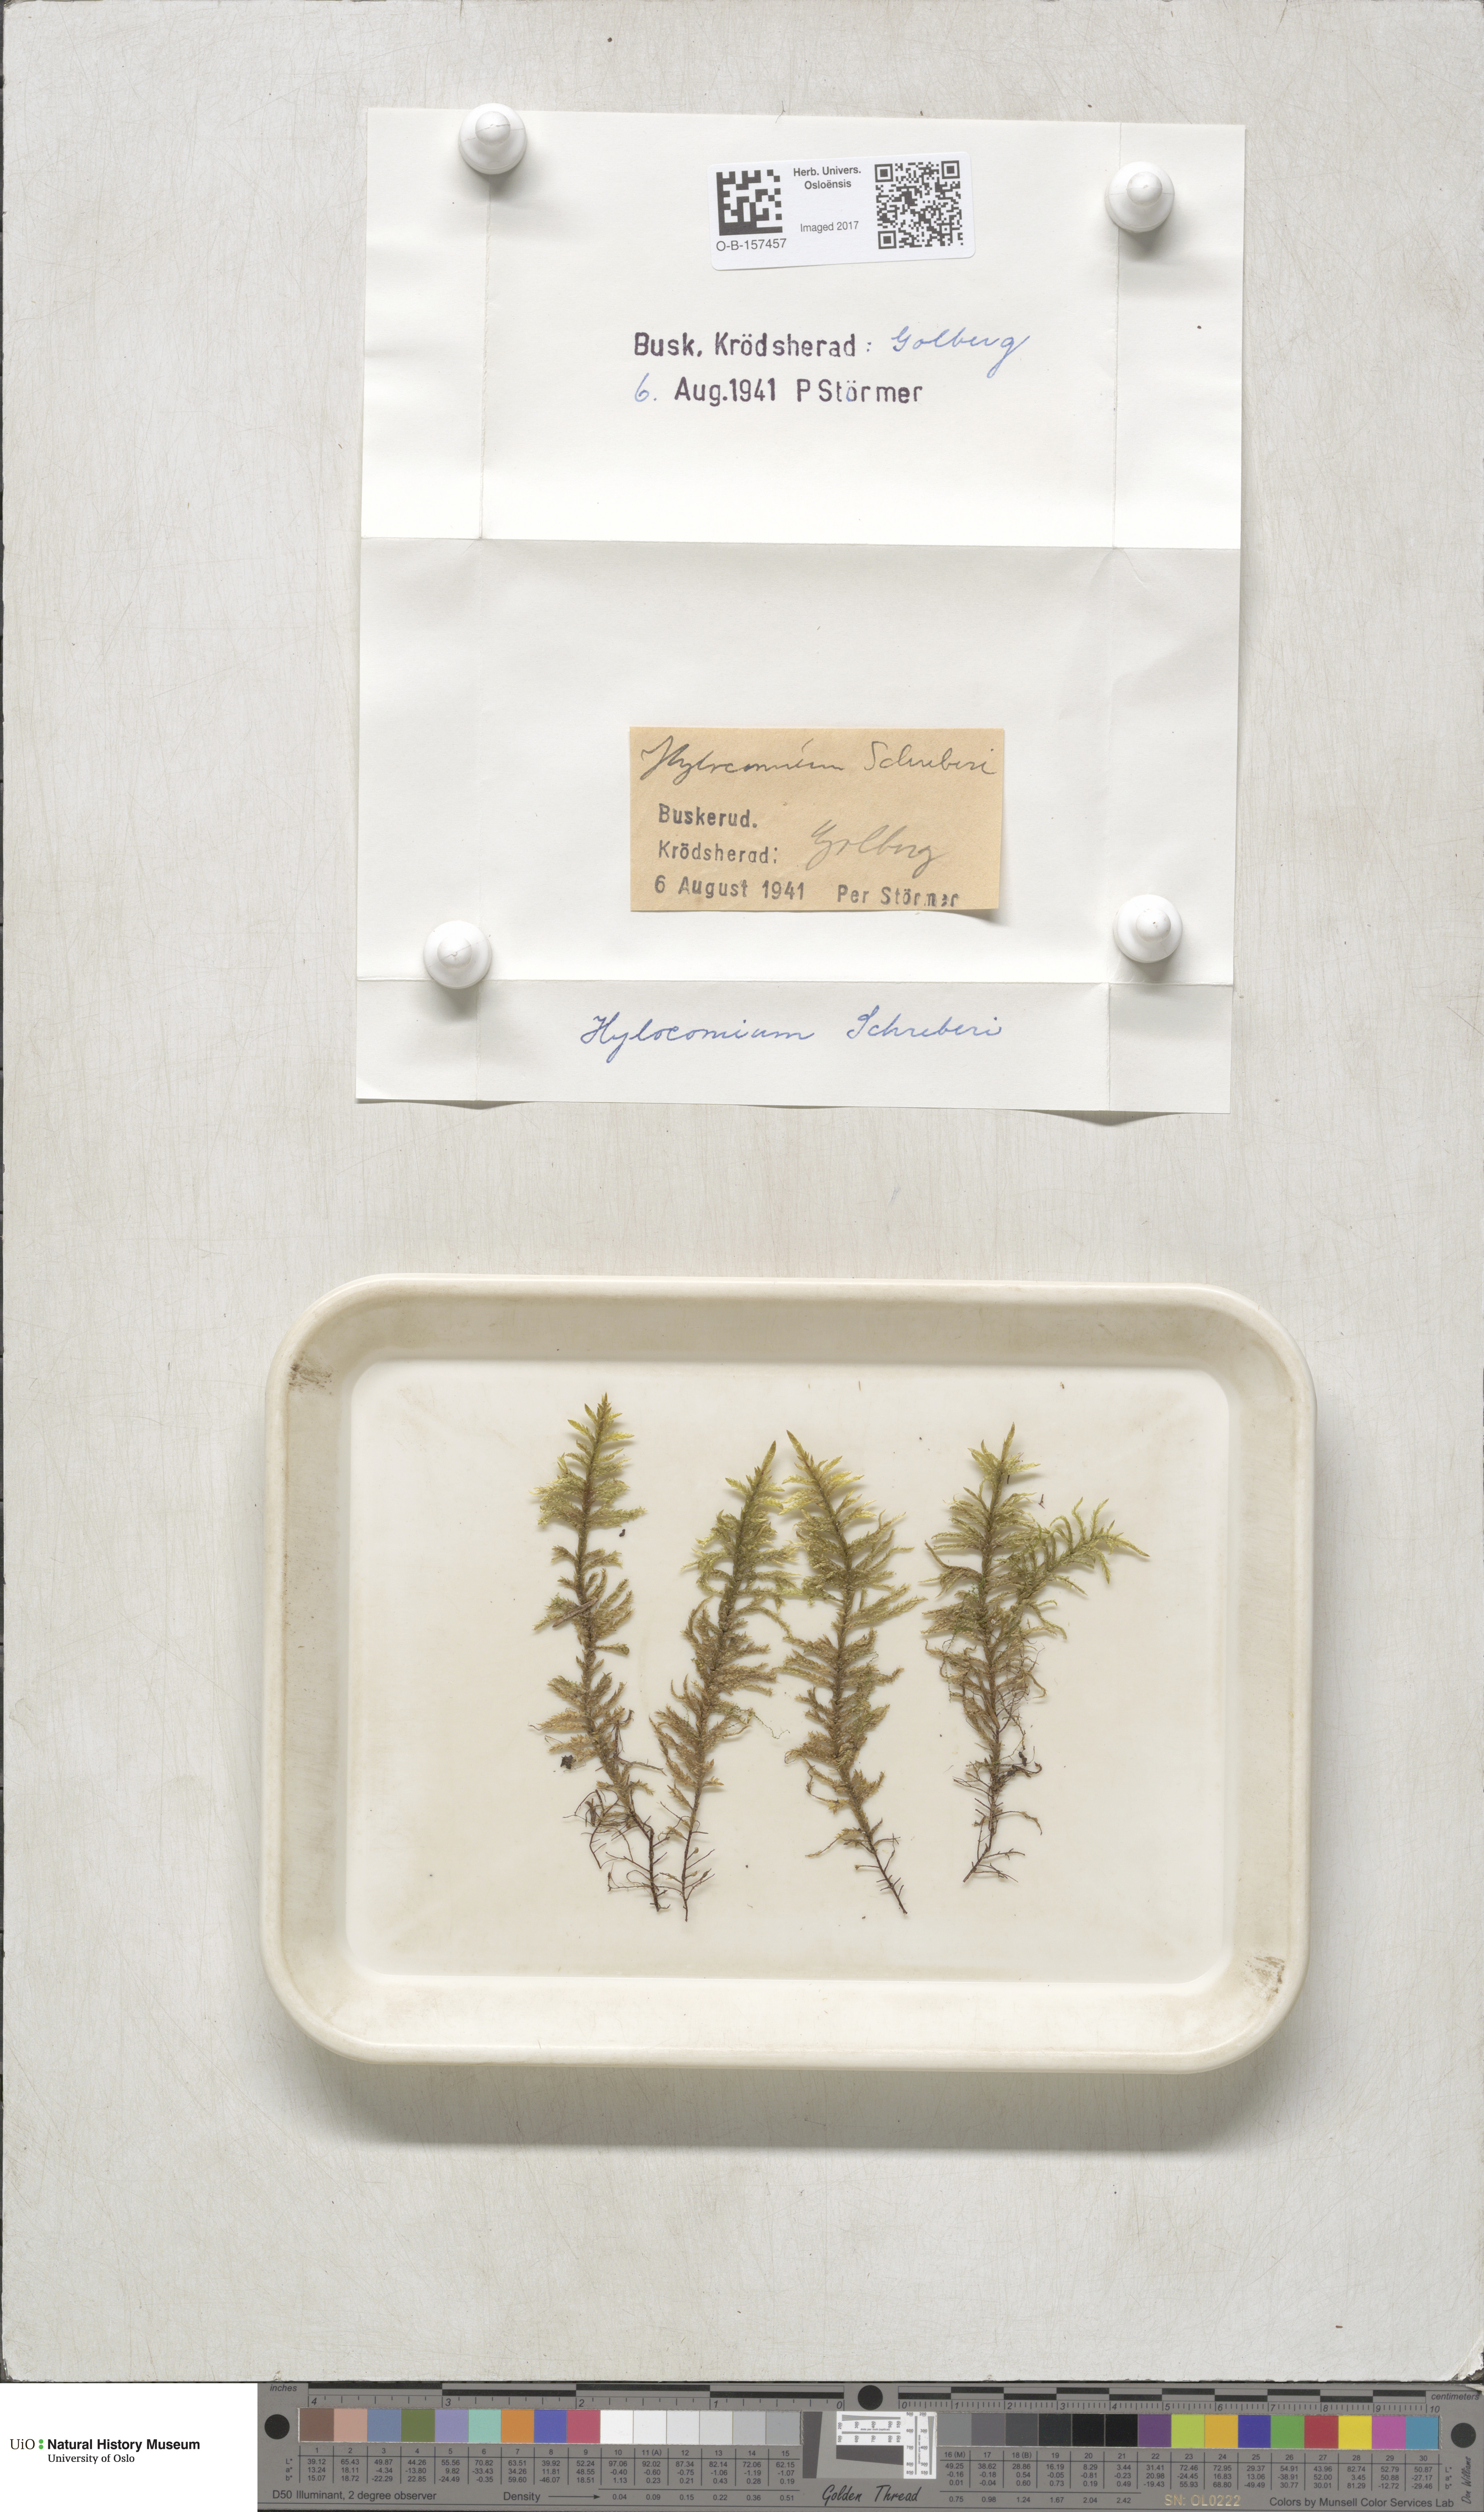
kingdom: Plantae
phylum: Bryophyta
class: Bryopsida
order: Hypnales
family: Hylocomiaceae
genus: Pleurozium
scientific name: Pleurozium schreberi
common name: Red-stemmed feather moss
